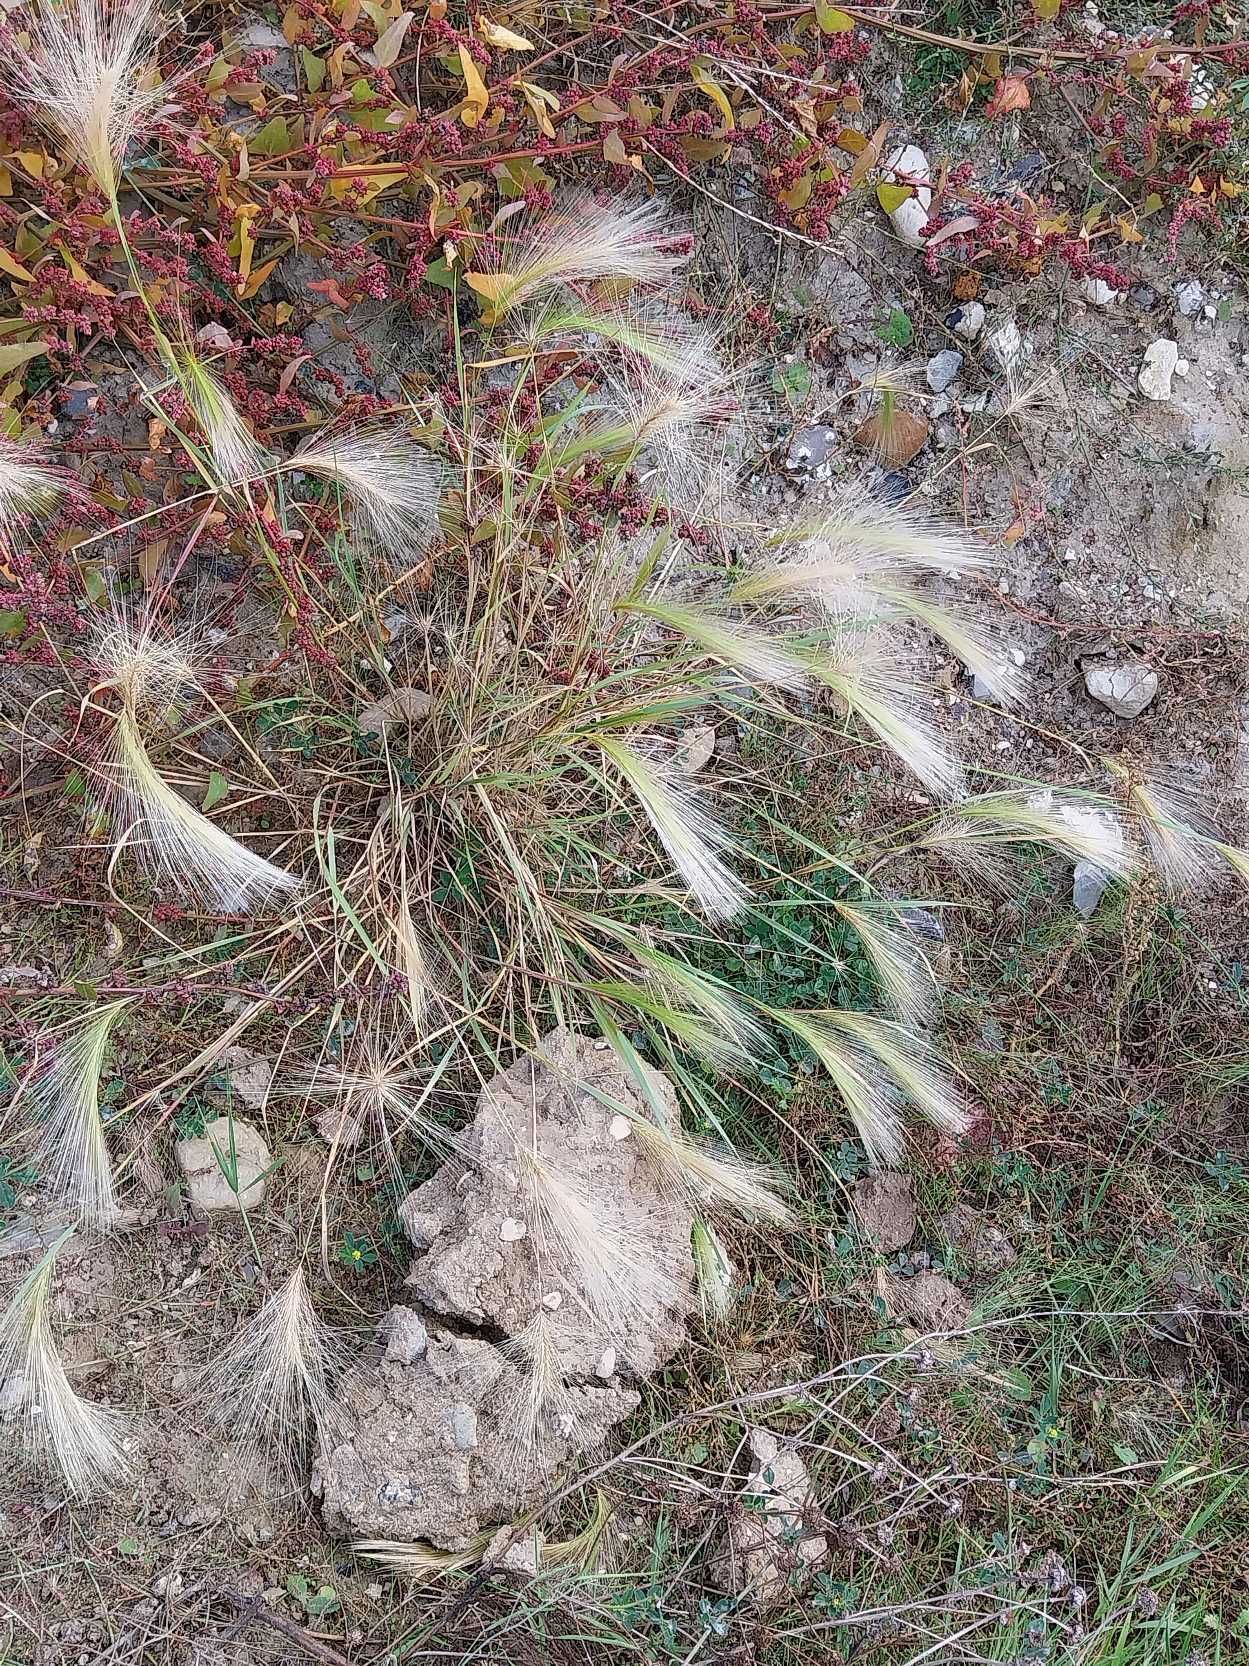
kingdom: Plantae
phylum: Tracheophyta
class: Liliopsida
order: Poales
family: Poaceae
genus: Hordeum
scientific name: Hordeum jubatum
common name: Egernhale-byg
